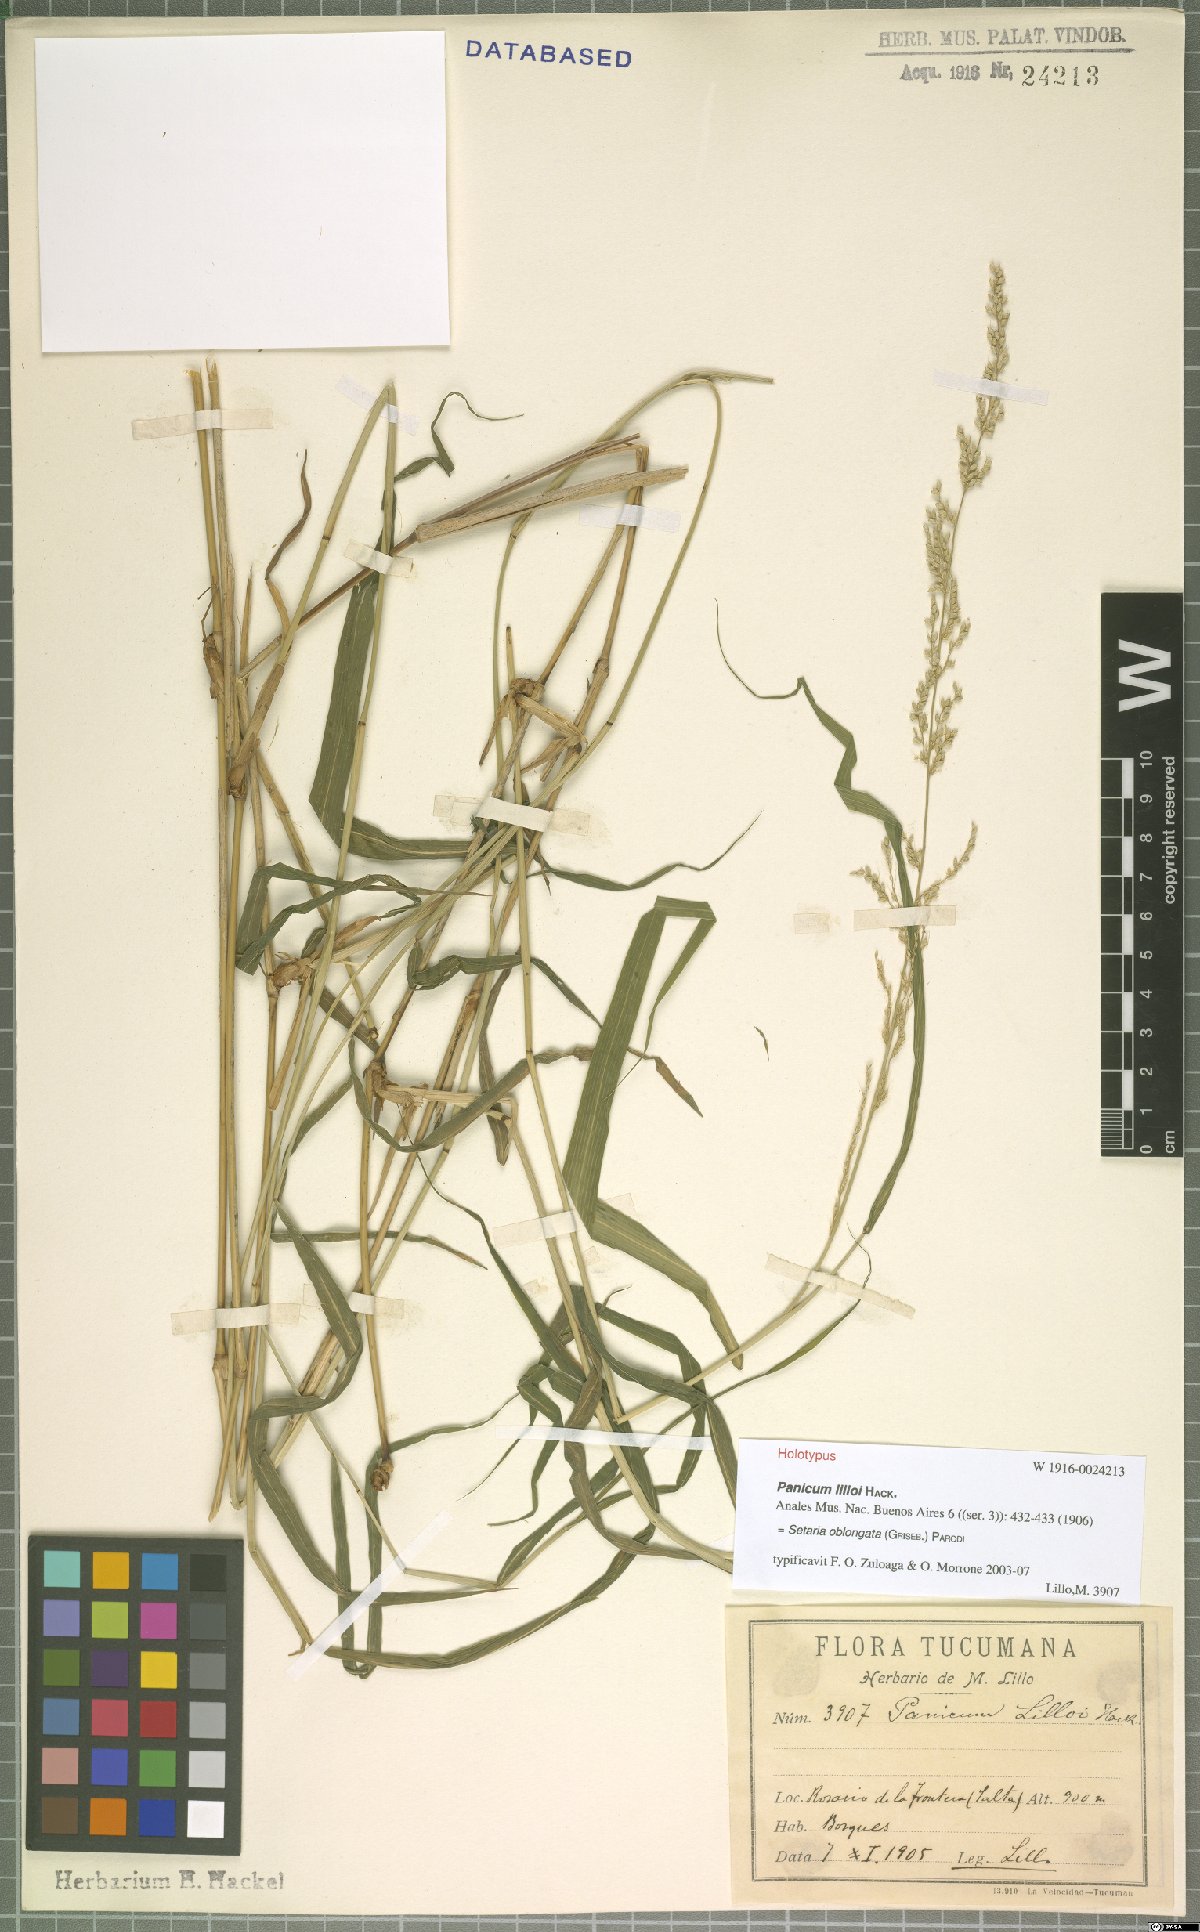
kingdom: Plantae
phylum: Tracheophyta
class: Liliopsida
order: Poales
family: Poaceae
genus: Setaria
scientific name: Setaria oblongata
